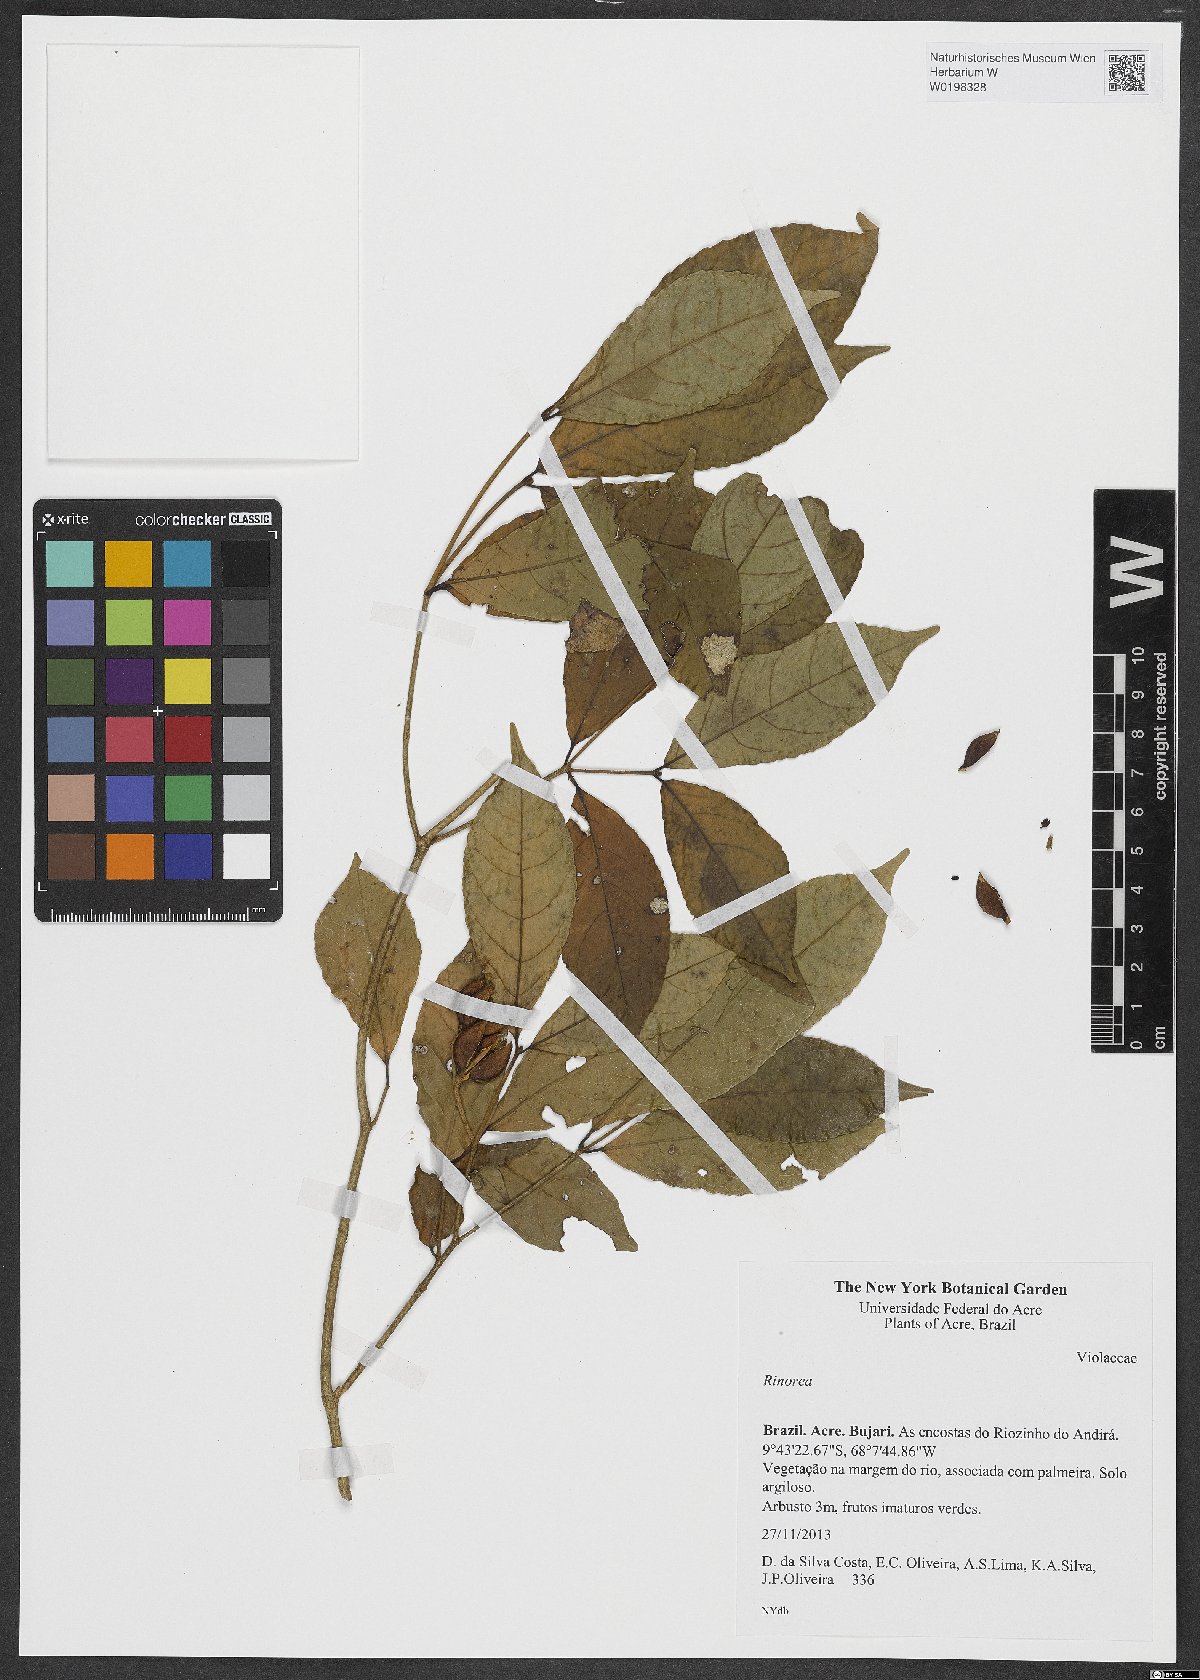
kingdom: Plantae
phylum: Tracheophyta
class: Magnoliopsida
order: Malpighiales
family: Violaceae
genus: Rinorea
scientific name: Rinorea
